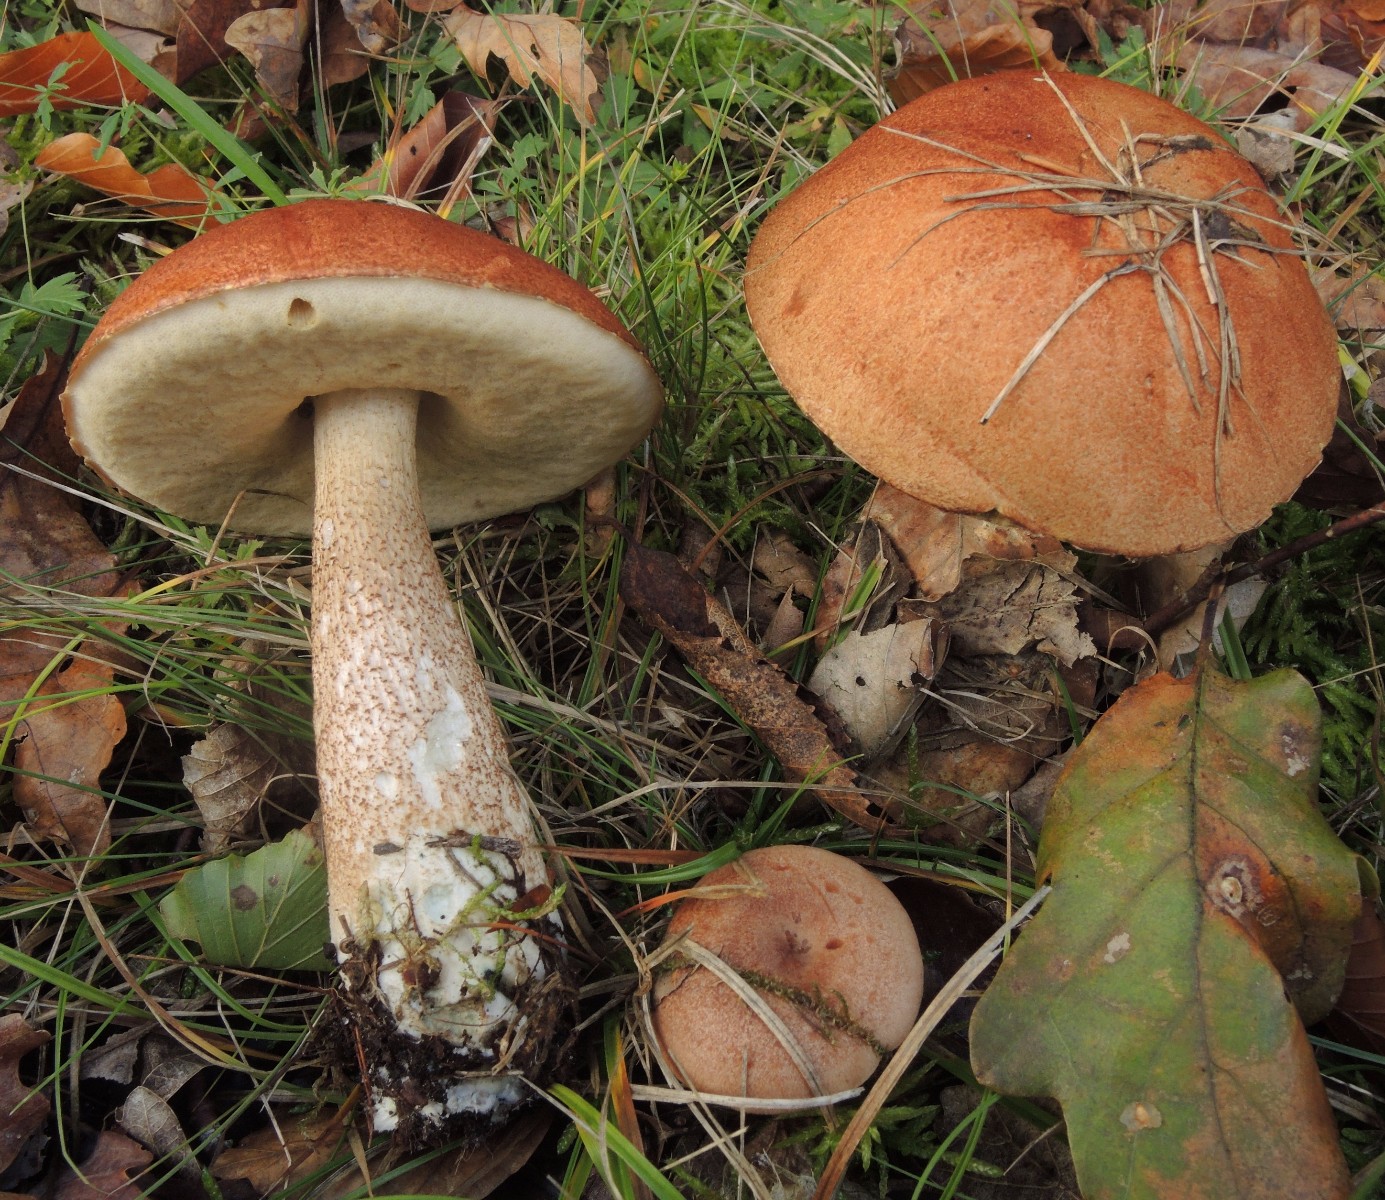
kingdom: Fungi
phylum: Basidiomycota
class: Agaricomycetes
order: Boletales
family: Boletaceae
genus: Leccinum
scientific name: Leccinum aurantiacum
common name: rustrød skælrørhat
